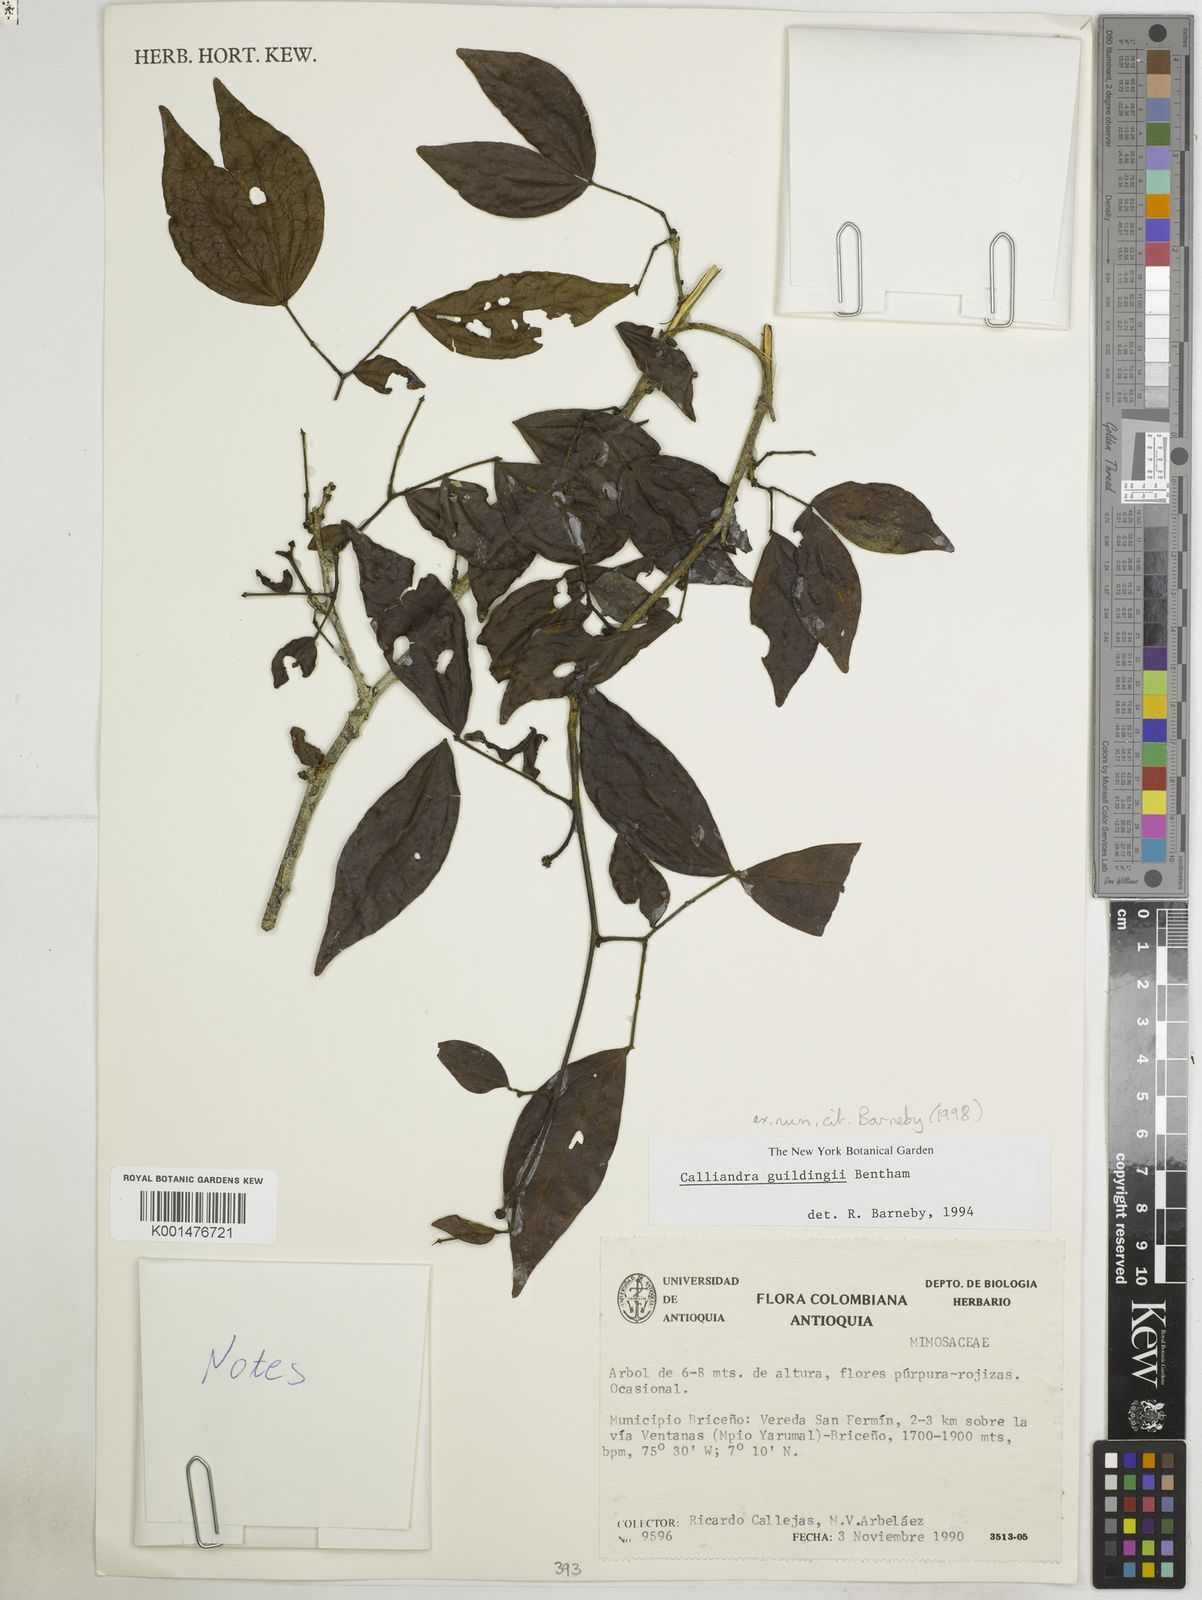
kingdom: Plantae
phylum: Tracheophyta
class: Magnoliopsida
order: Fabales
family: Fabaceae
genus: Calliandra
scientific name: Calliandra guildingii
